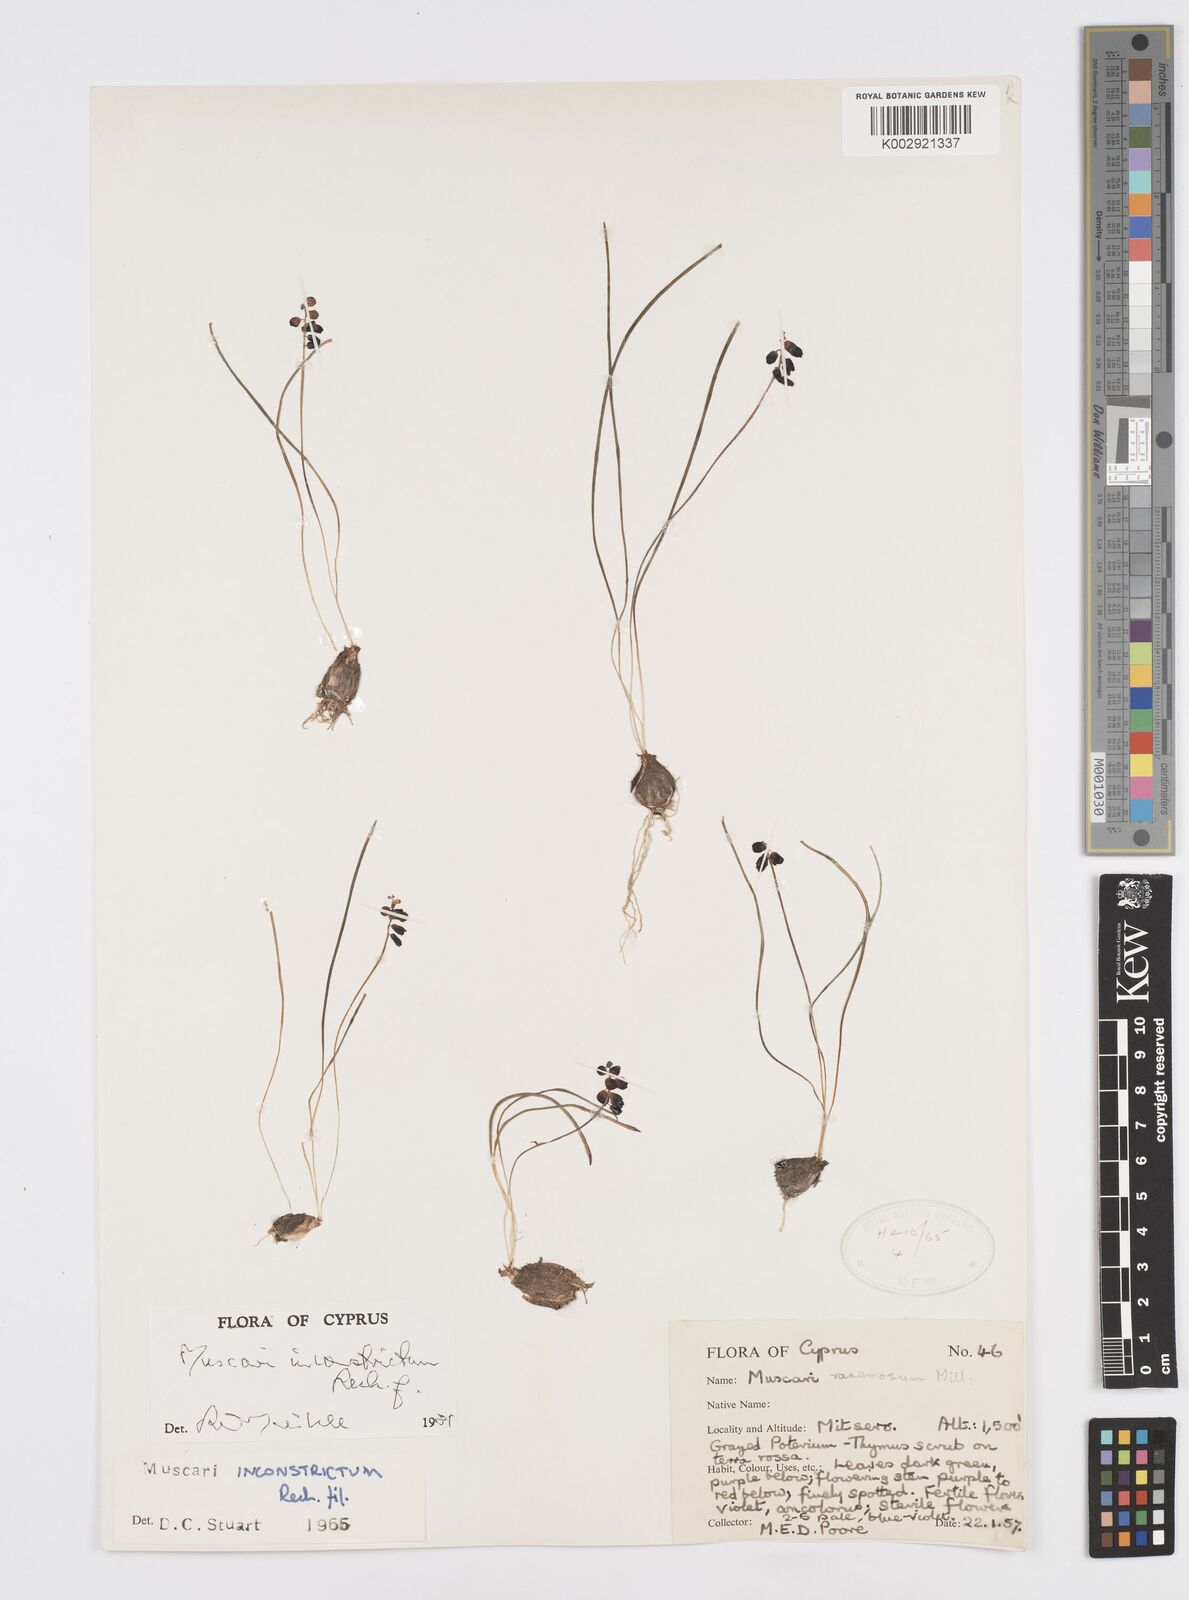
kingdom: Plantae
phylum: Tracheophyta
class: Liliopsida
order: Asparagales
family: Asparagaceae
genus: Muscari
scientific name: Muscari inconstrictum
